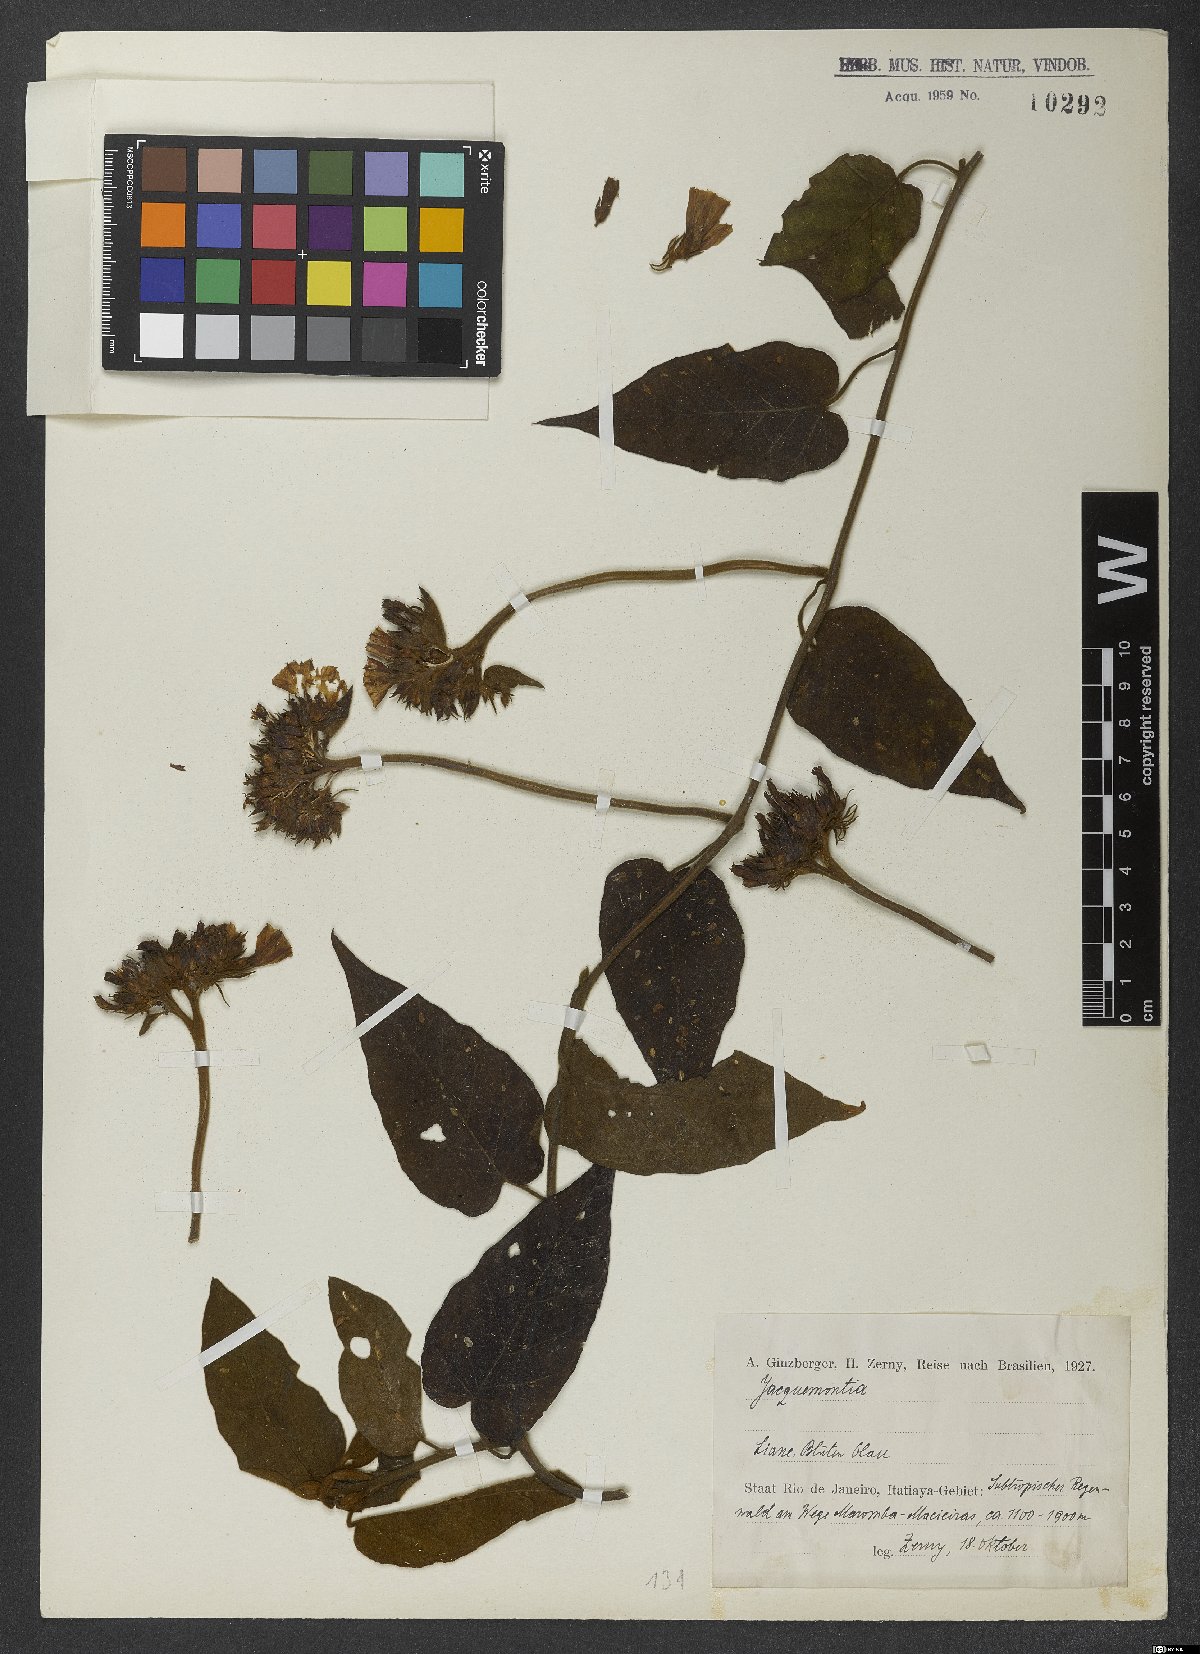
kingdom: Plantae
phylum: Tracheophyta
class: Magnoliopsida
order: Solanales
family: Convolvulaceae
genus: Jacquemontia
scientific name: Jacquemontia
